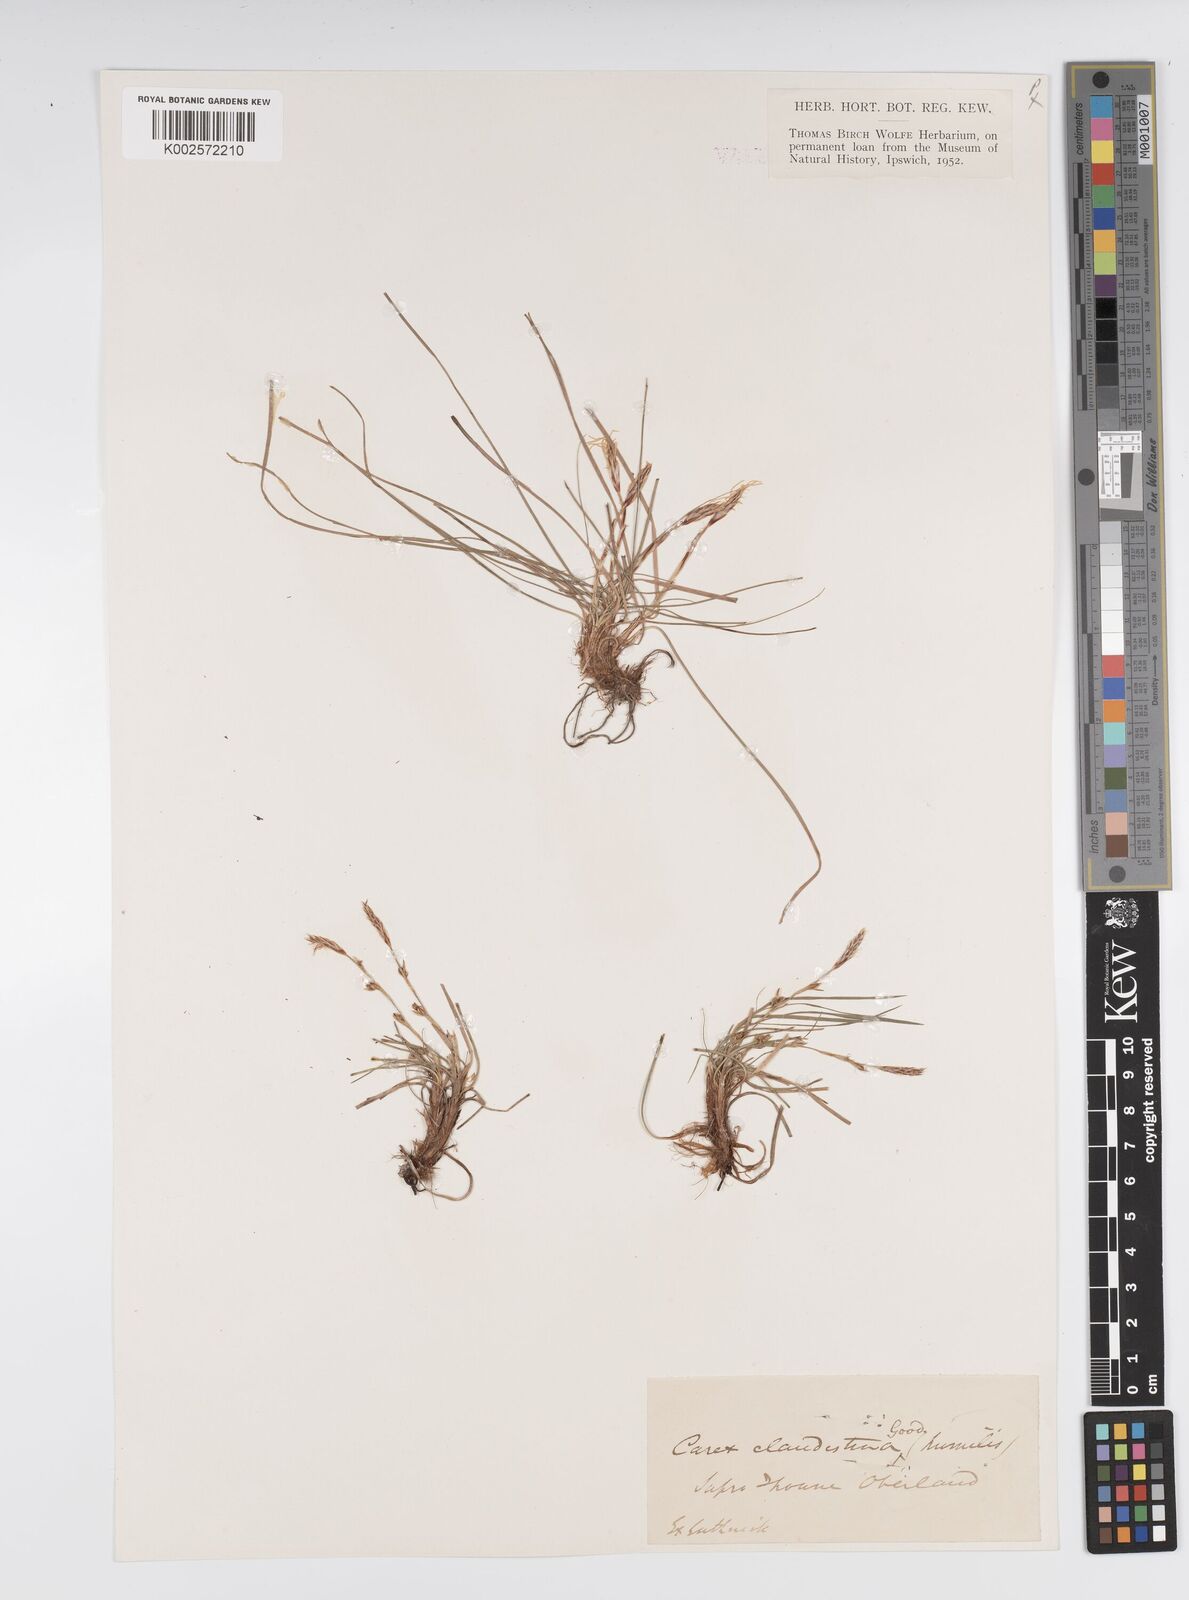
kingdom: Plantae
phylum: Tracheophyta
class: Liliopsida
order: Poales
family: Cyperaceae
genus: Carex
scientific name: Carex humilis
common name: Dwarf sedge
